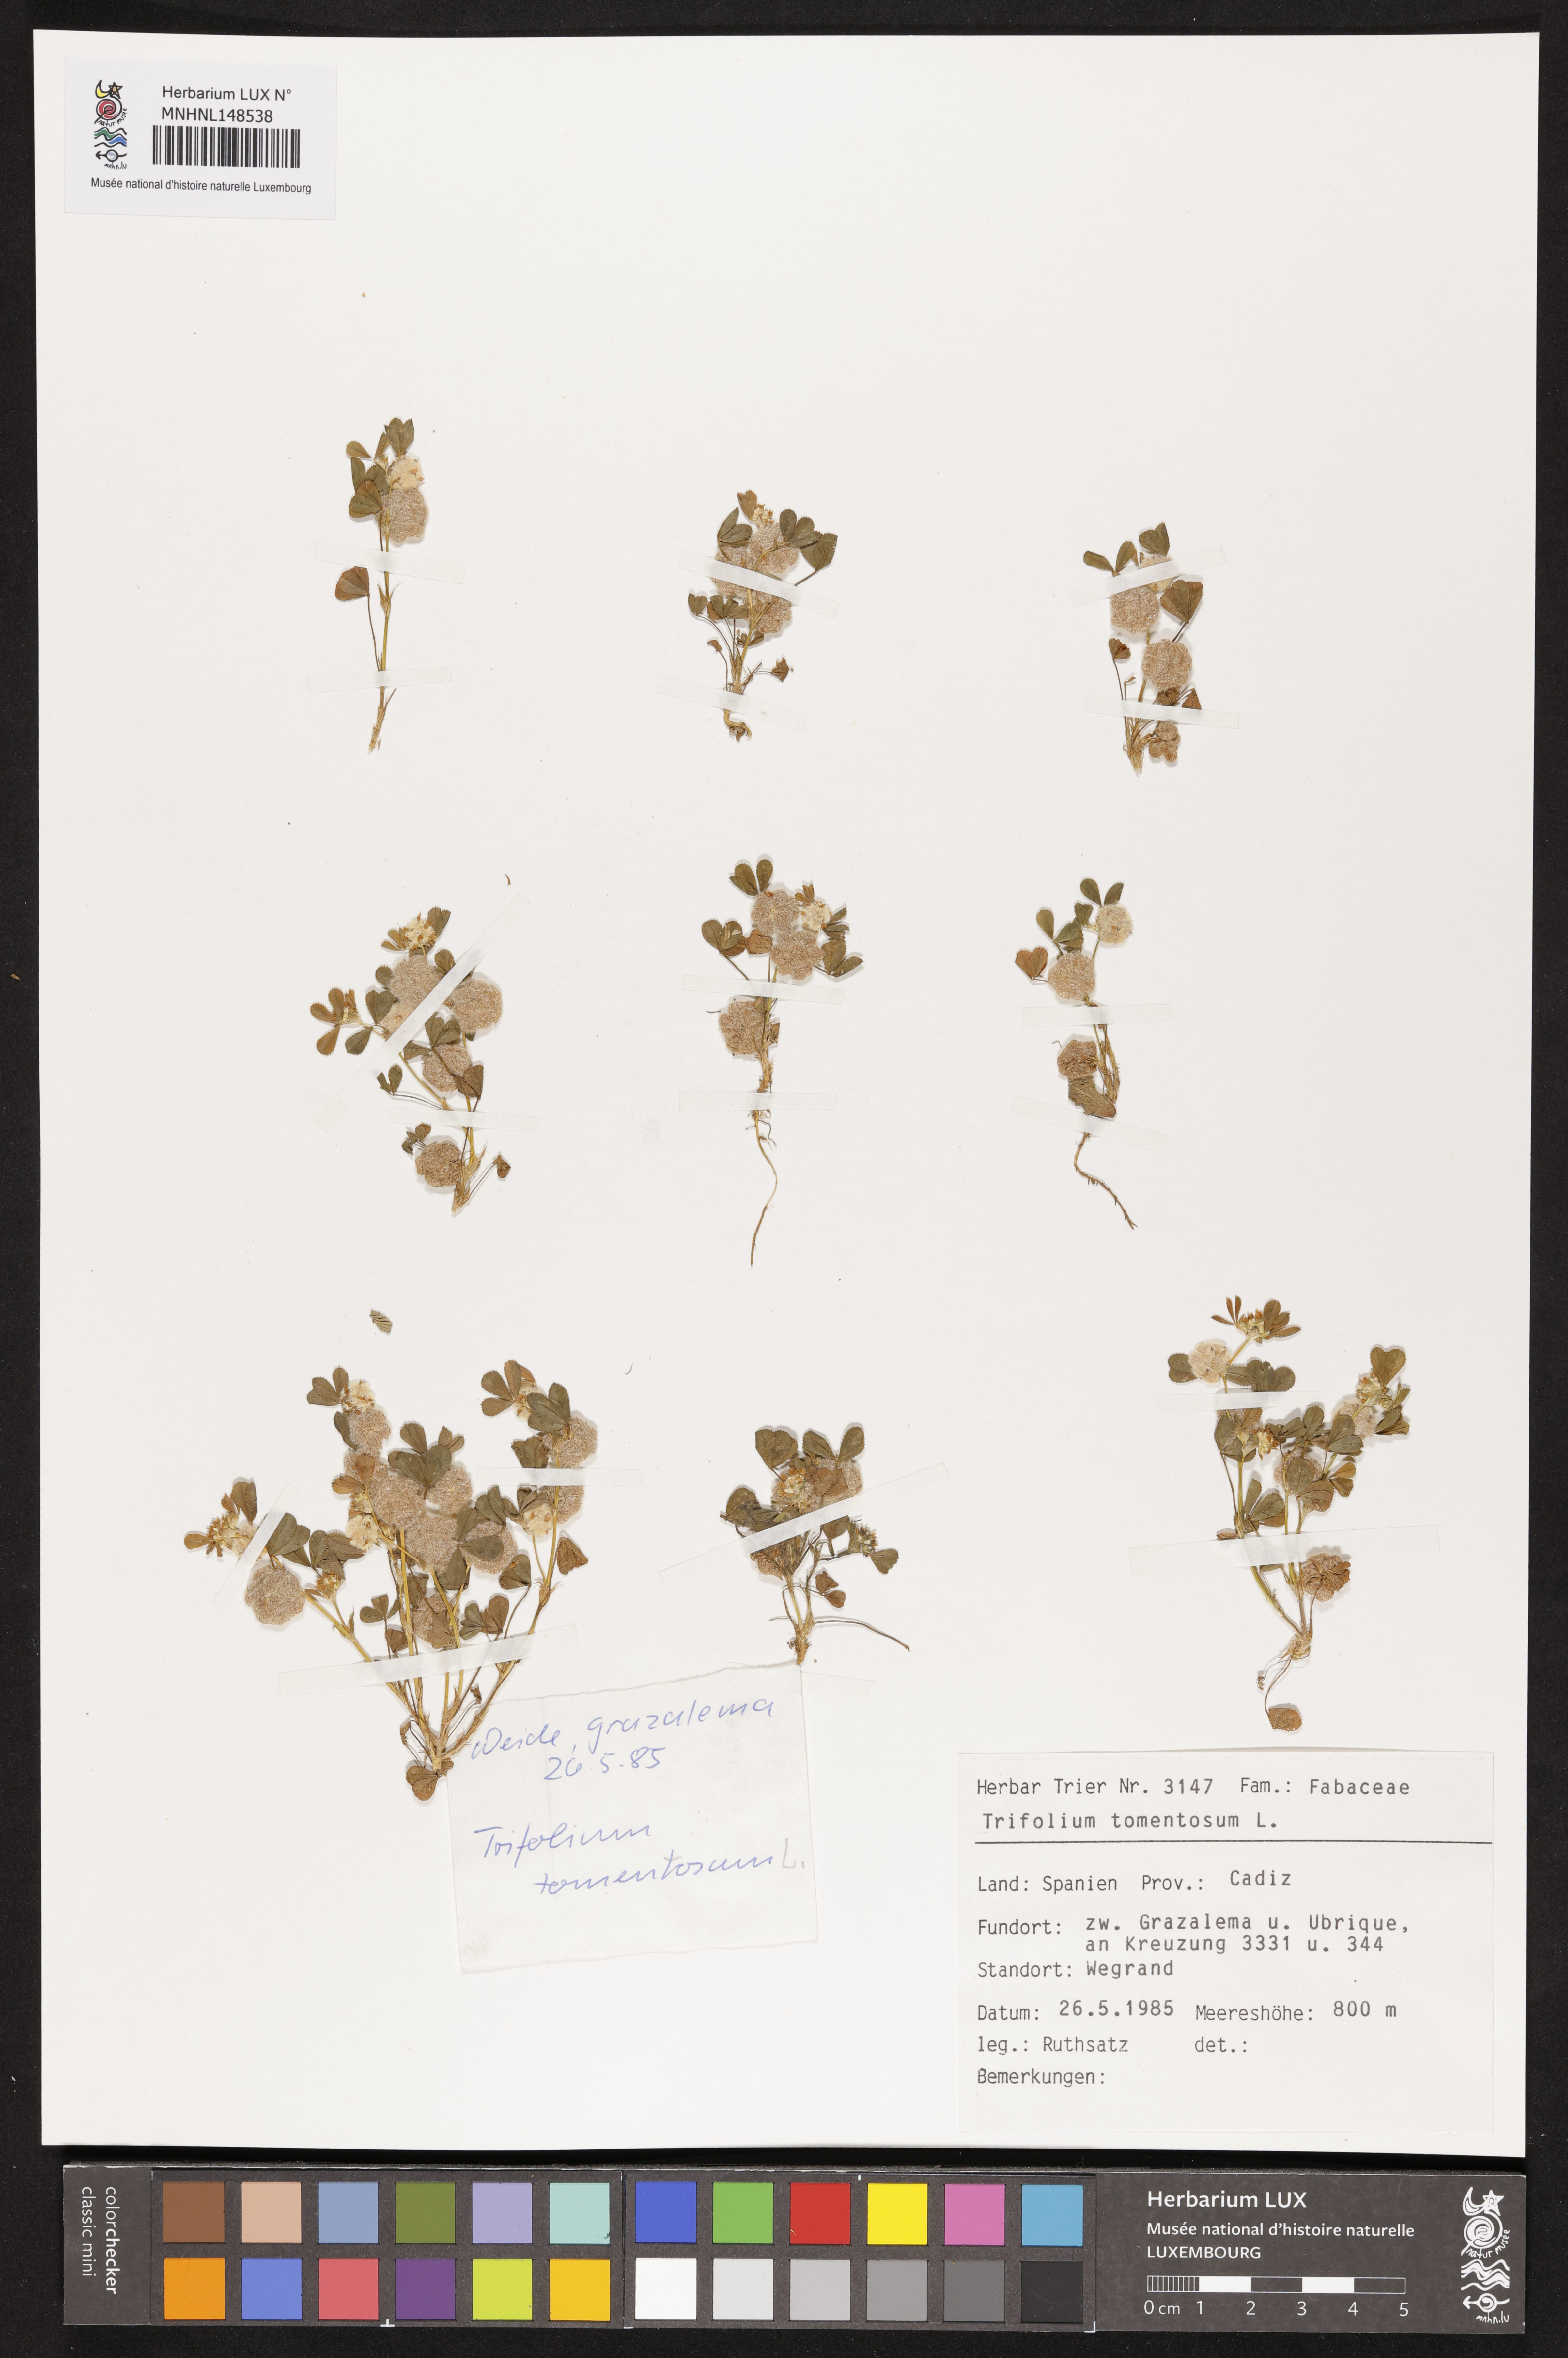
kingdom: Plantae
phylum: Tracheophyta
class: Magnoliopsida
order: Fabales
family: Fabaceae
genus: Trifolium
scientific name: Trifolium tomentosum
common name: Woolly clover
